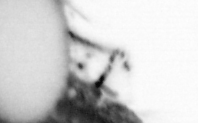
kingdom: Animalia
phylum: Annelida
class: Polychaeta
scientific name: Polychaeta
